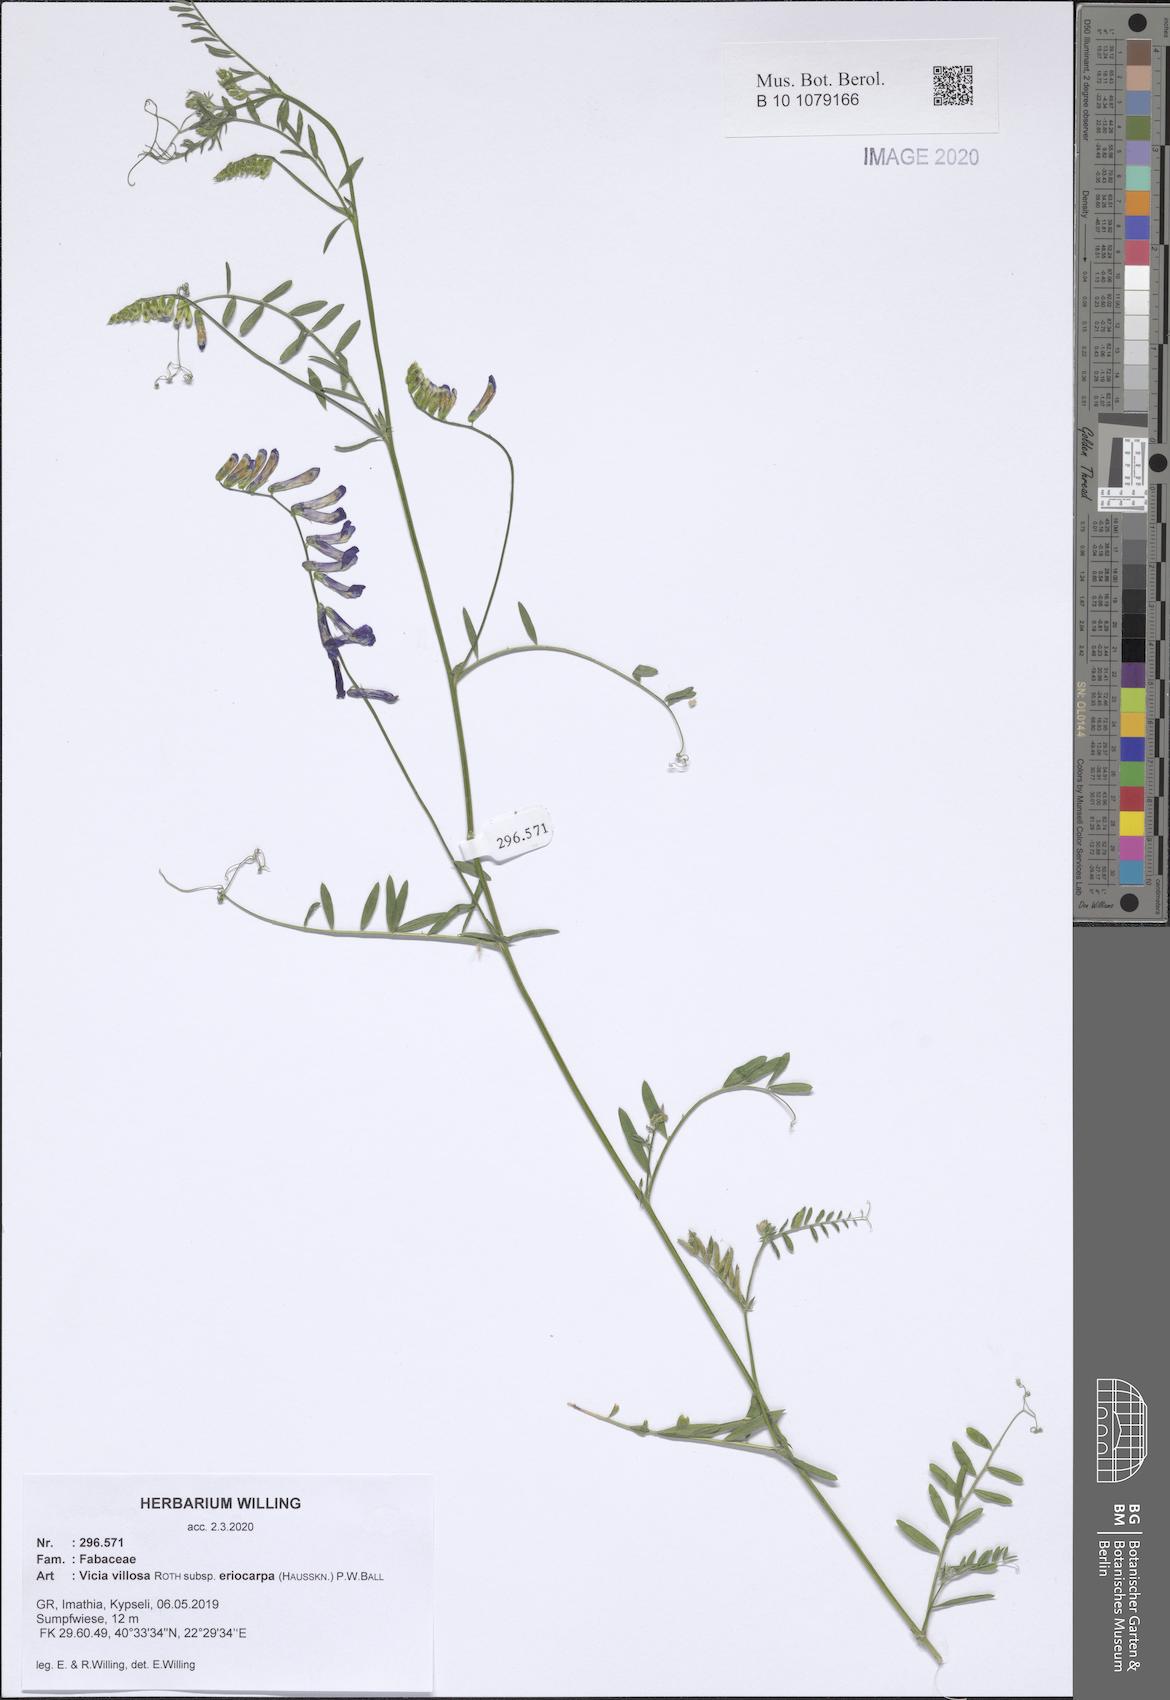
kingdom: Plantae
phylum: Tracheophyta
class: Magnoliopsida
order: Fabales
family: Fabaceae
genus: Vicia
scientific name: Vicia eriocarpa
